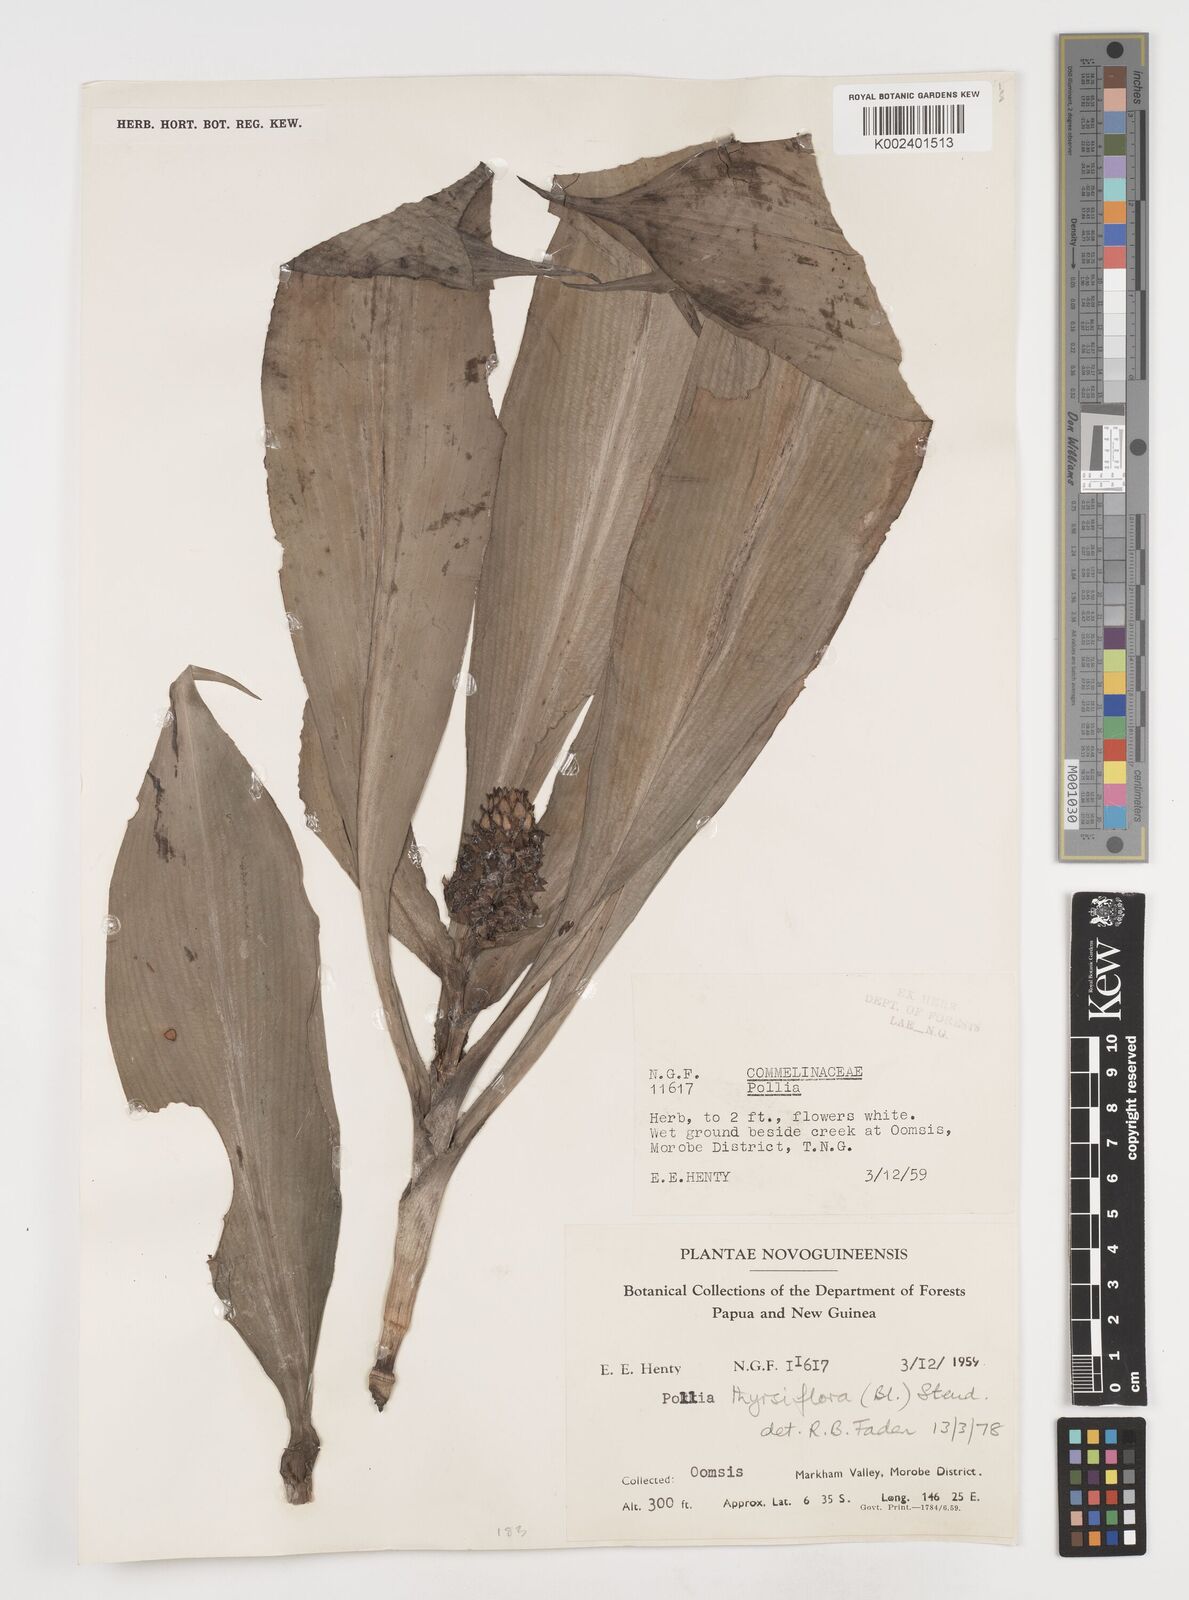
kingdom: Plantae
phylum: Tracheophyta
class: Liliopsida
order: Commelinales
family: Commelinaceae
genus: Pollia
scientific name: Pollia thyrsiflora
